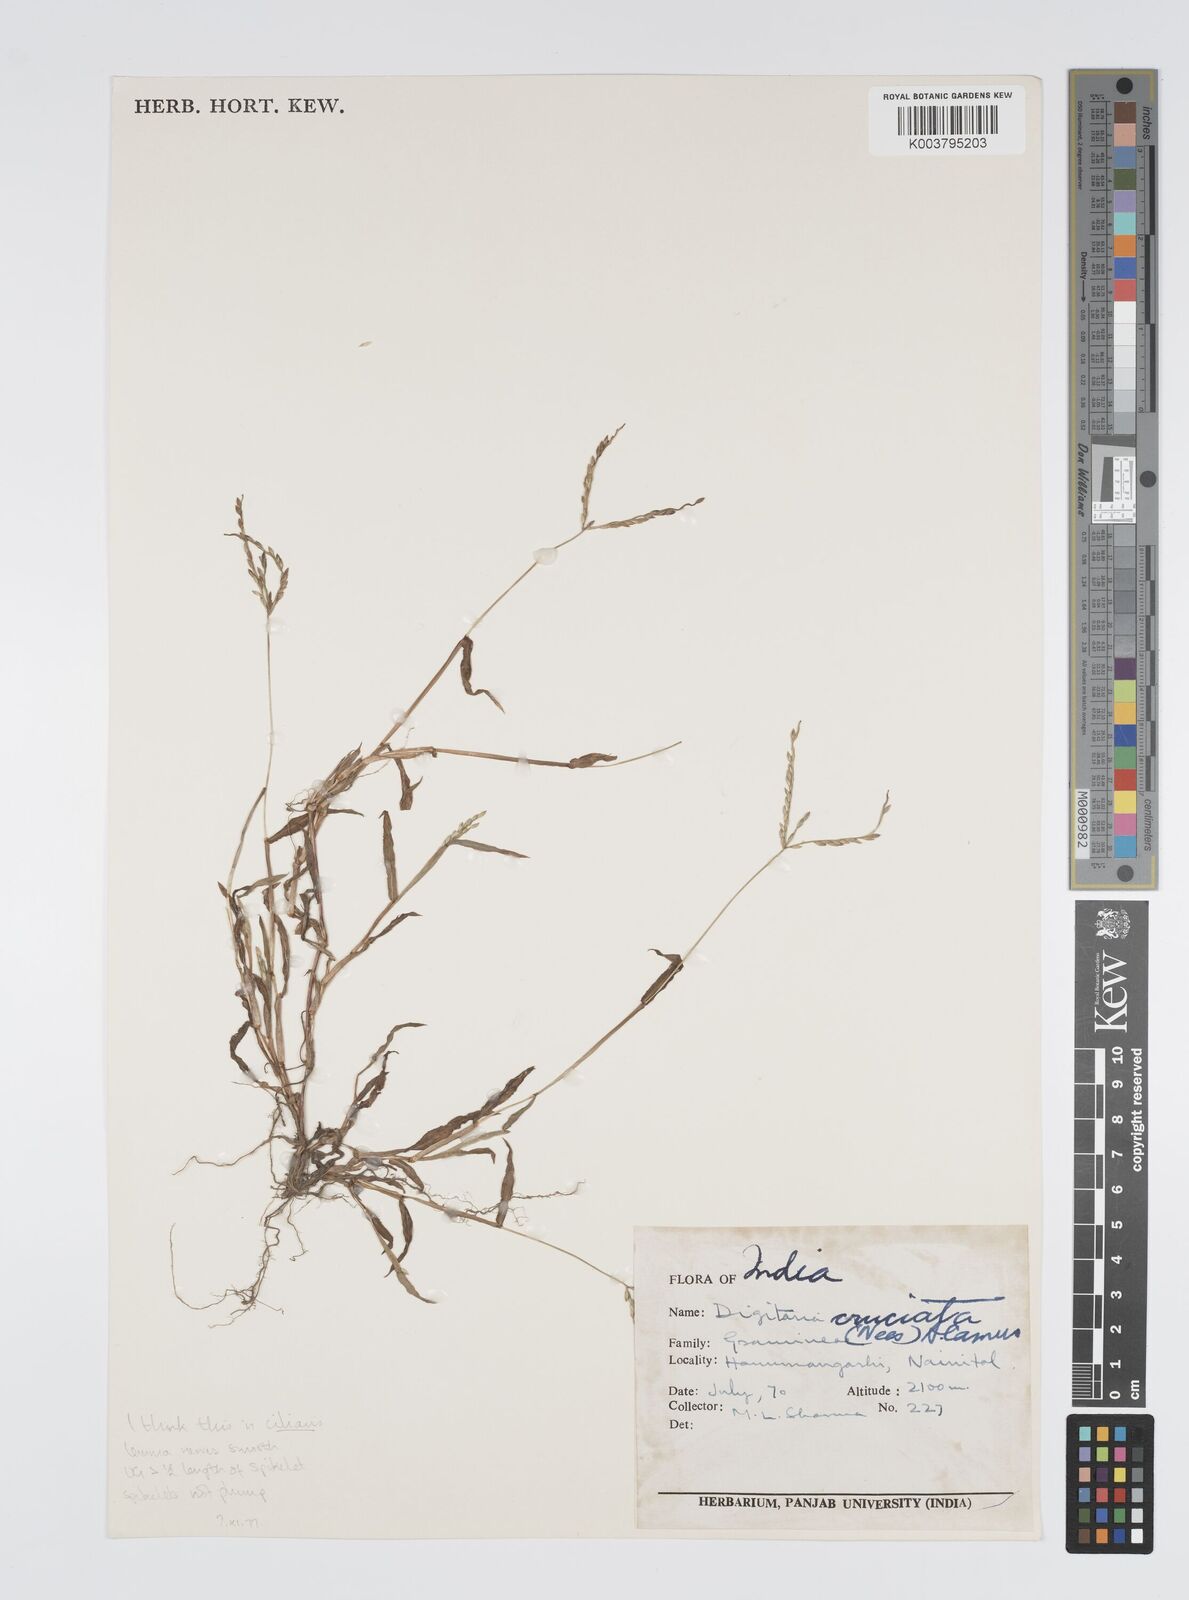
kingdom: Plantae
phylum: Tracheophyta
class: Liliopsida
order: Poales
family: Poaceae
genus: Digitaria
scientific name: Digitaria ciliaris
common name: Tropical finger-grass
